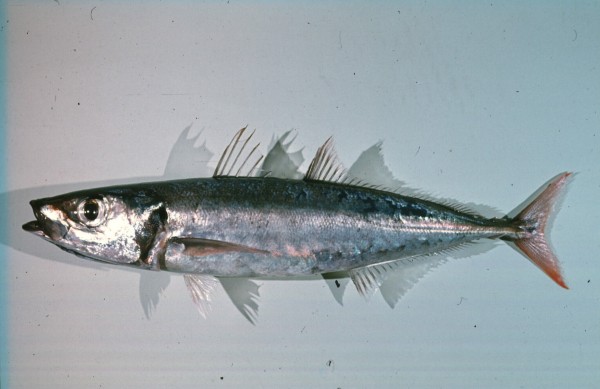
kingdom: Animalia
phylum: Chordata
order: Perciformes
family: Carangidae
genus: Decapterus
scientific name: Decapterus tabl
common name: Roughear scad
